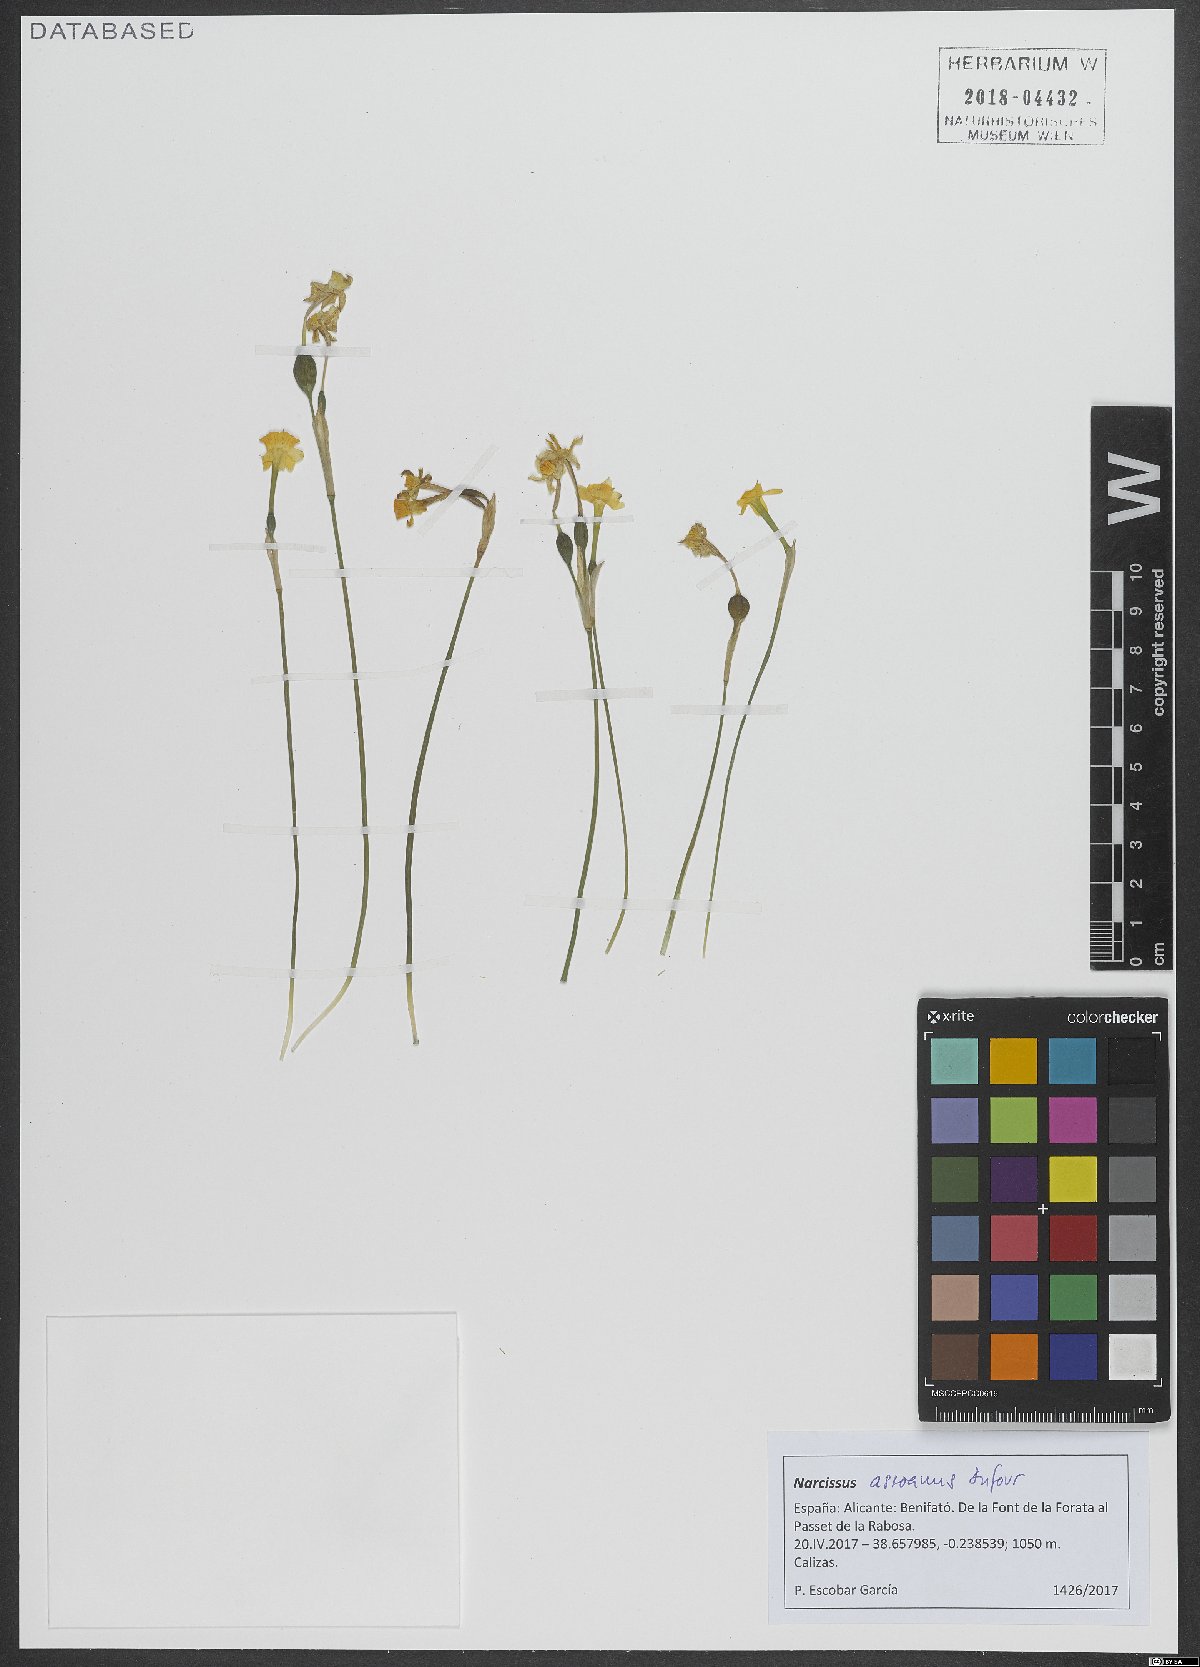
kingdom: Plantae
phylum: Tracheophyta
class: Liliopsida
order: Asparagales
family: Amaryllidaceae
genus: Narcissus
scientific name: Narcissus assoanus
